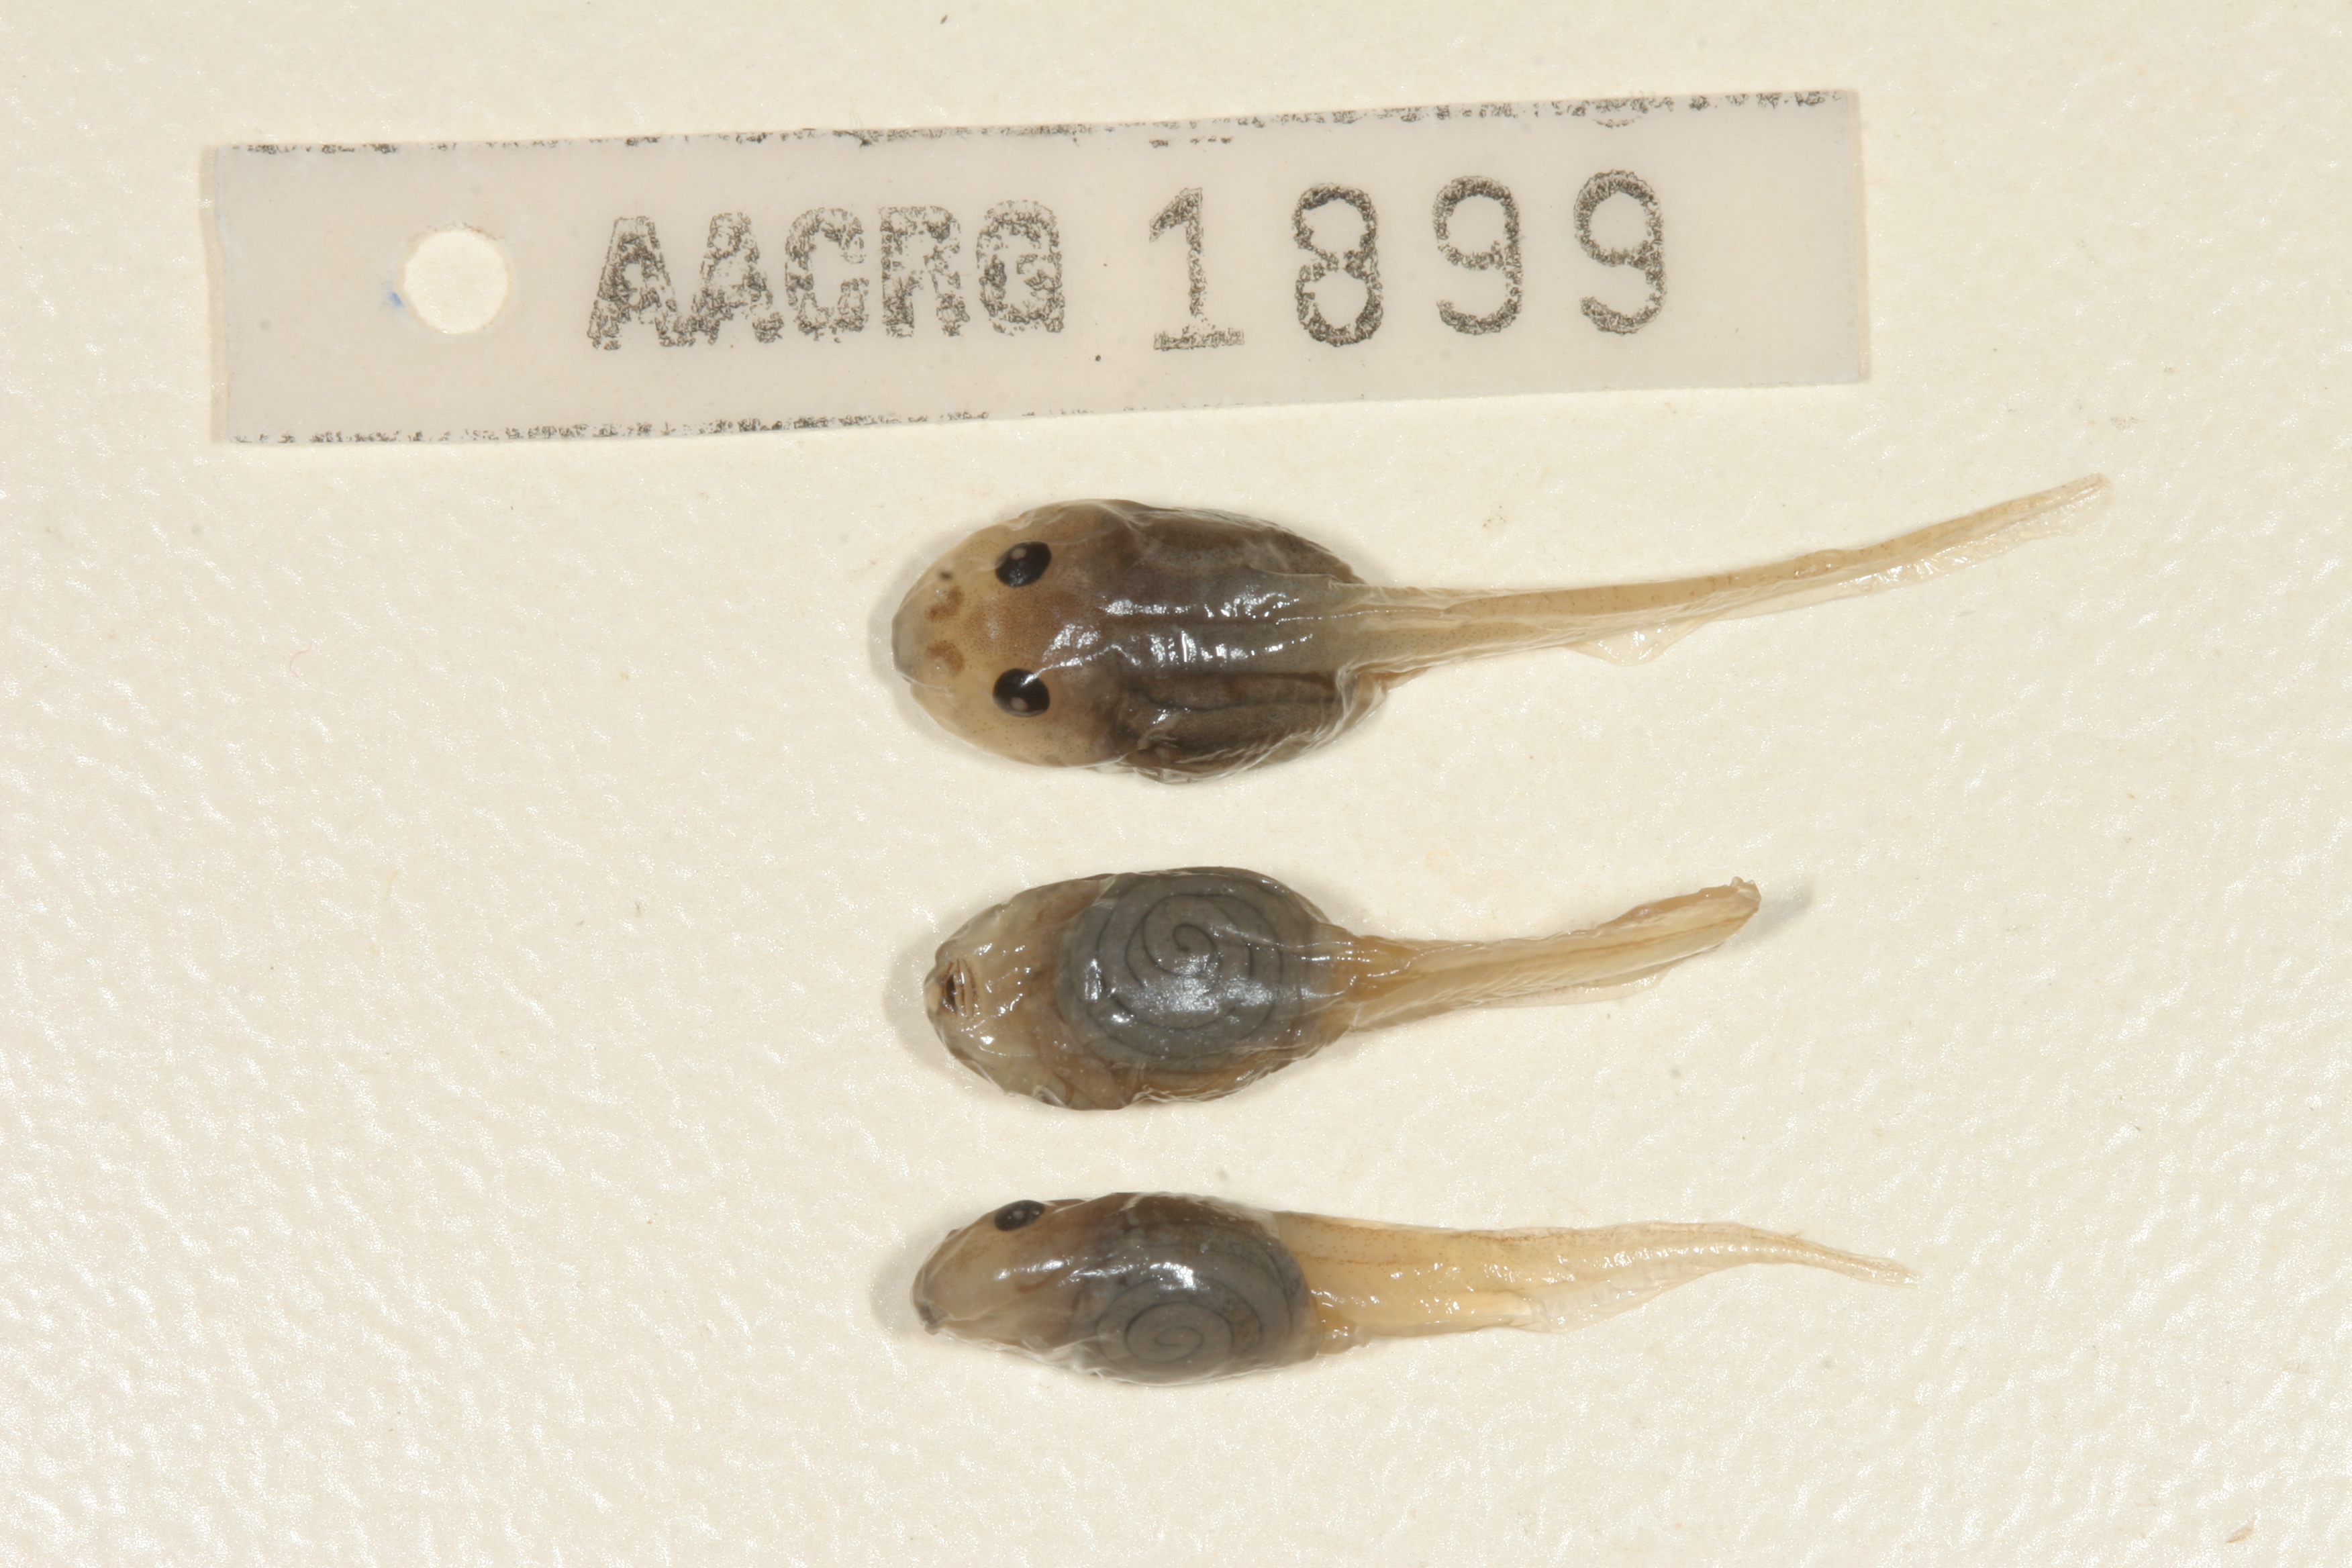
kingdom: Animalia
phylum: Chordata
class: Amphibia
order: Anura
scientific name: Anura
